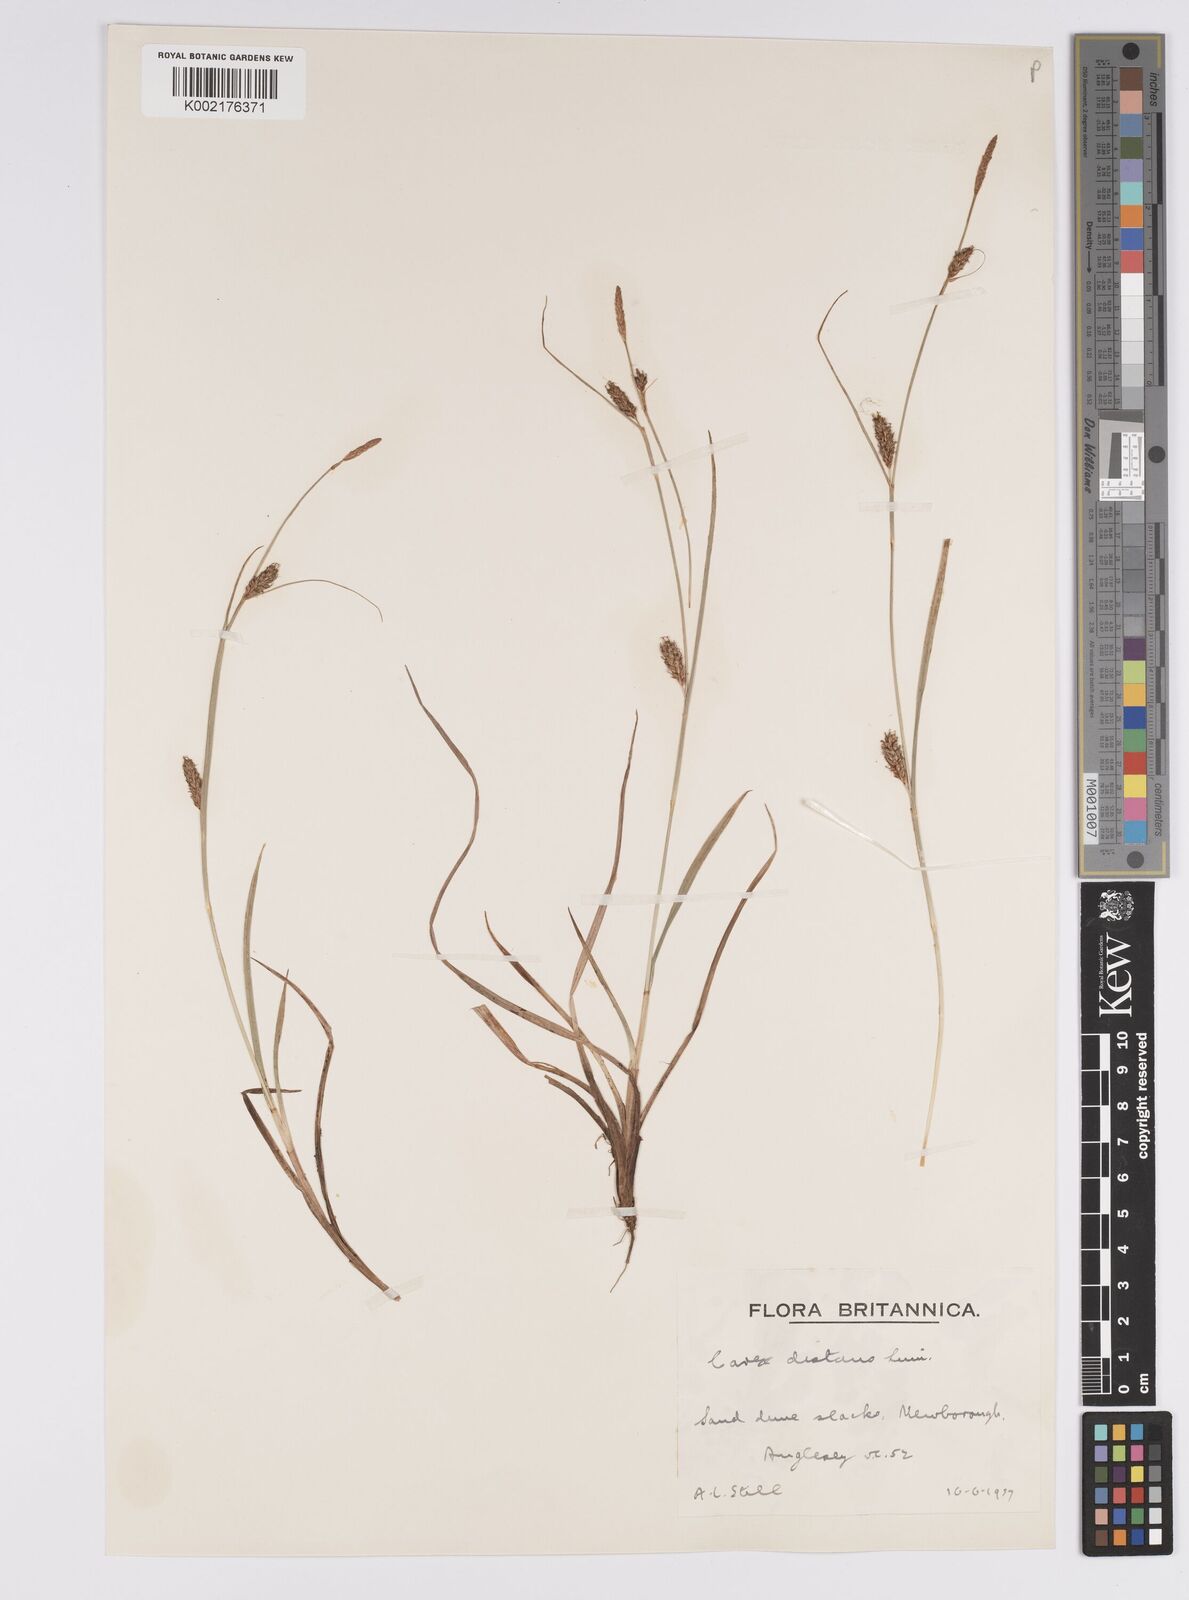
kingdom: Plantae
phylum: Tracheophyta
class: Liliopsida
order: Poales
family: Cyperaceae
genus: Carex
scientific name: Carex distans
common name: Distant sedge
